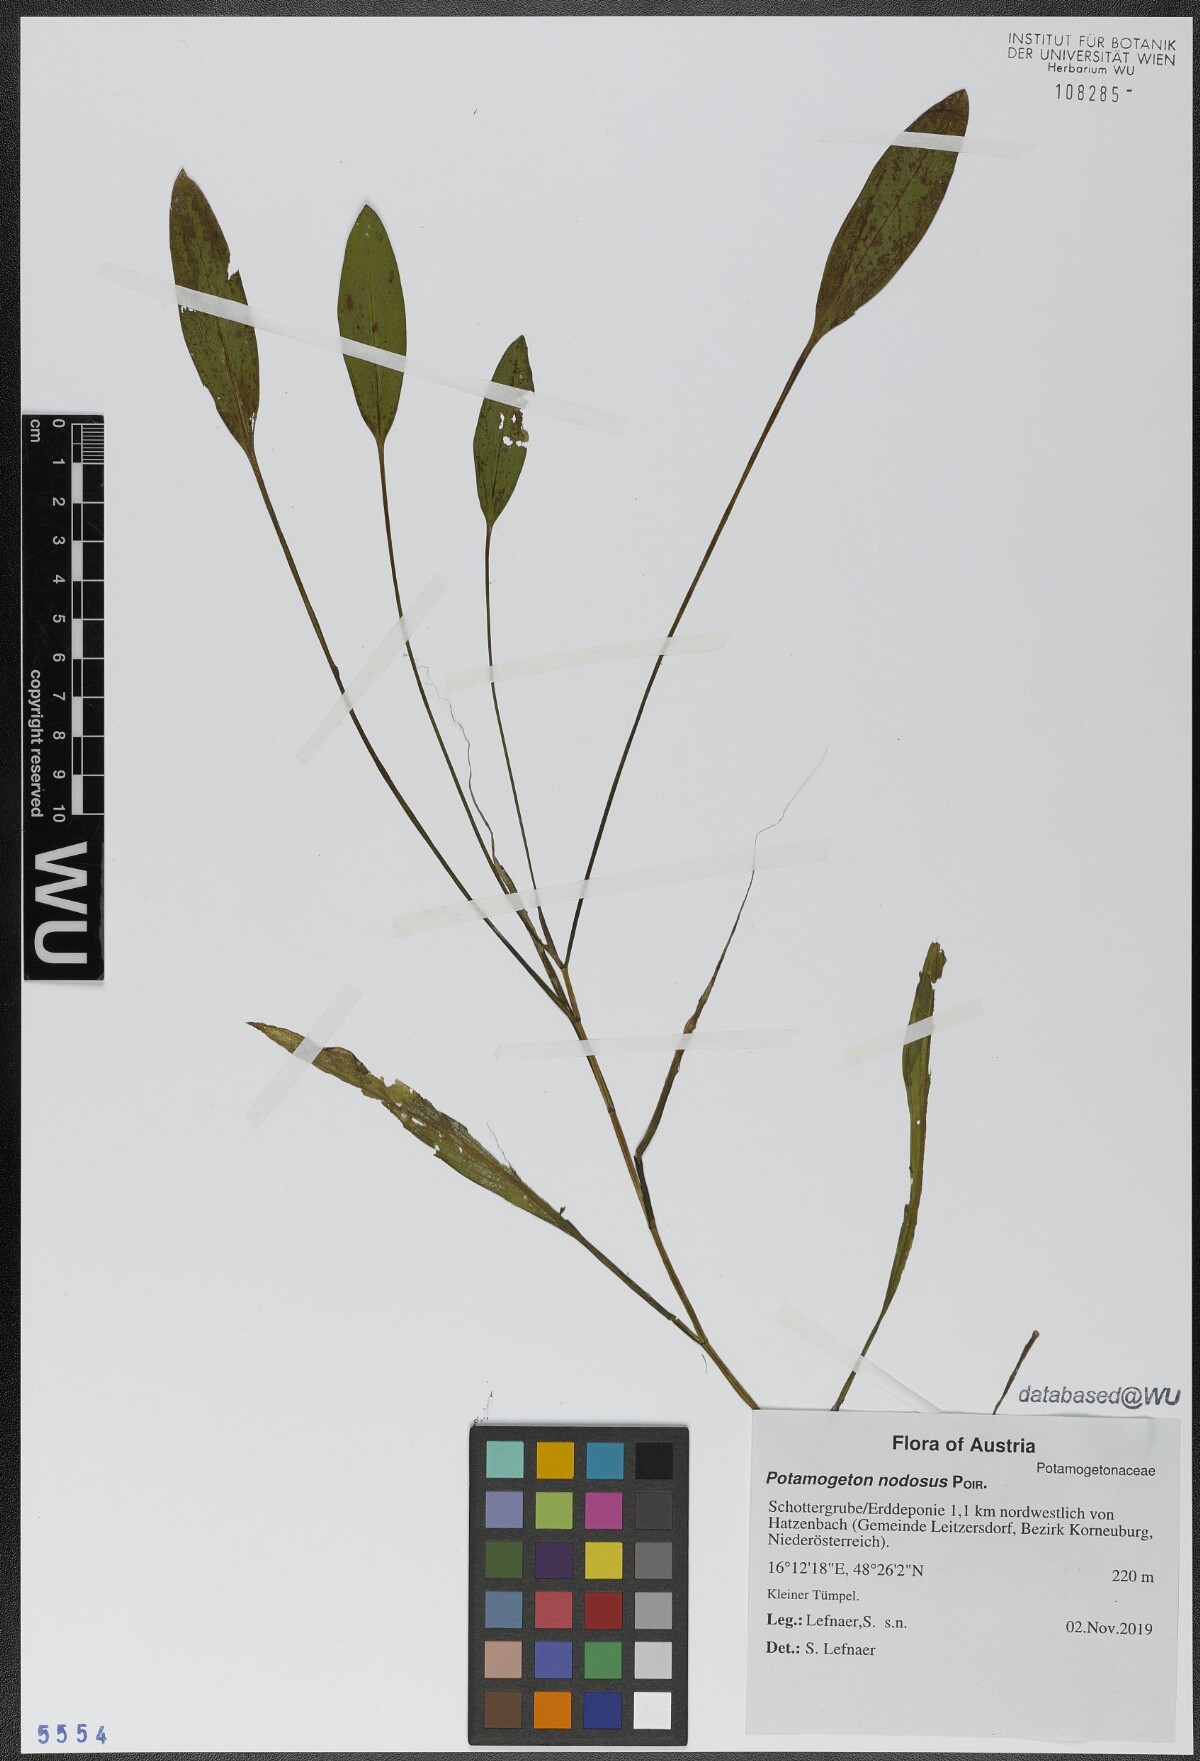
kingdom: Plantae
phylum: Tracheophyta
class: Liliopsida
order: Alismatales
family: Potamogetonaceae
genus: Potamogeton
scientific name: Potamogeton nodosus
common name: Loddon pondweed
